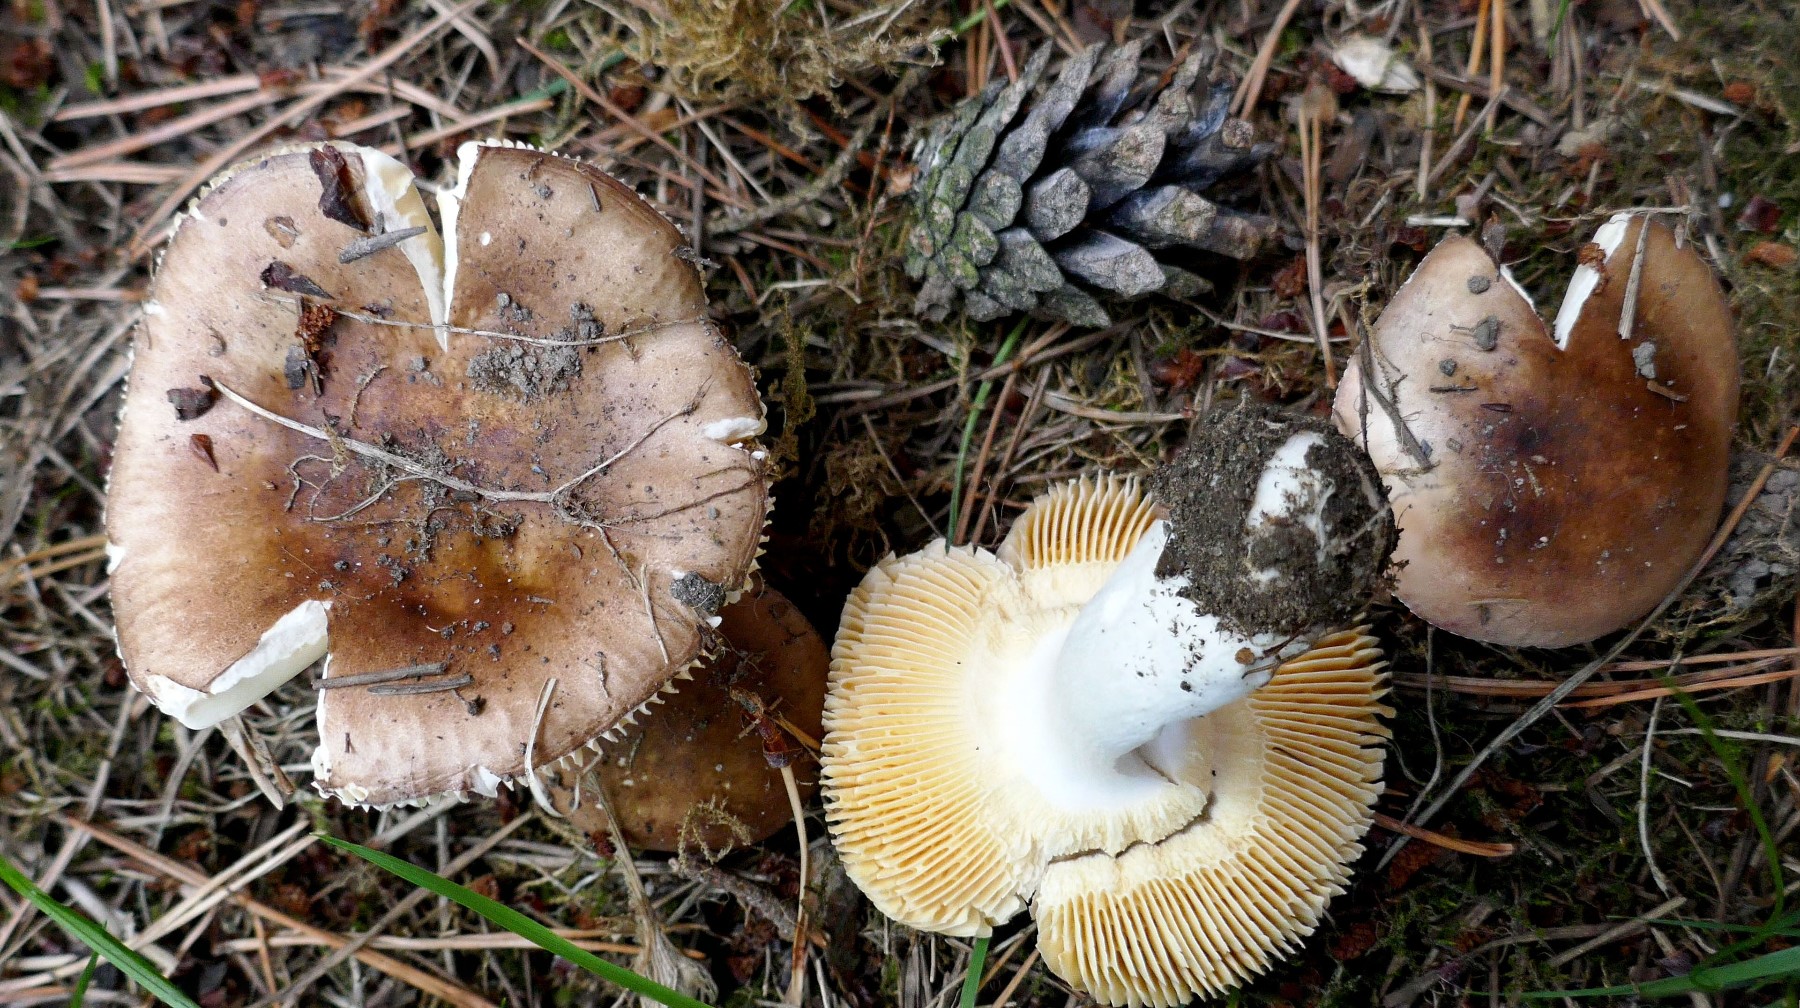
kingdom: Fungi
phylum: Basidiomycota
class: Agaricomycetes
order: Russulales
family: Russulaceae
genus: Russula
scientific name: Russula cessans
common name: fyrre-skørhat
